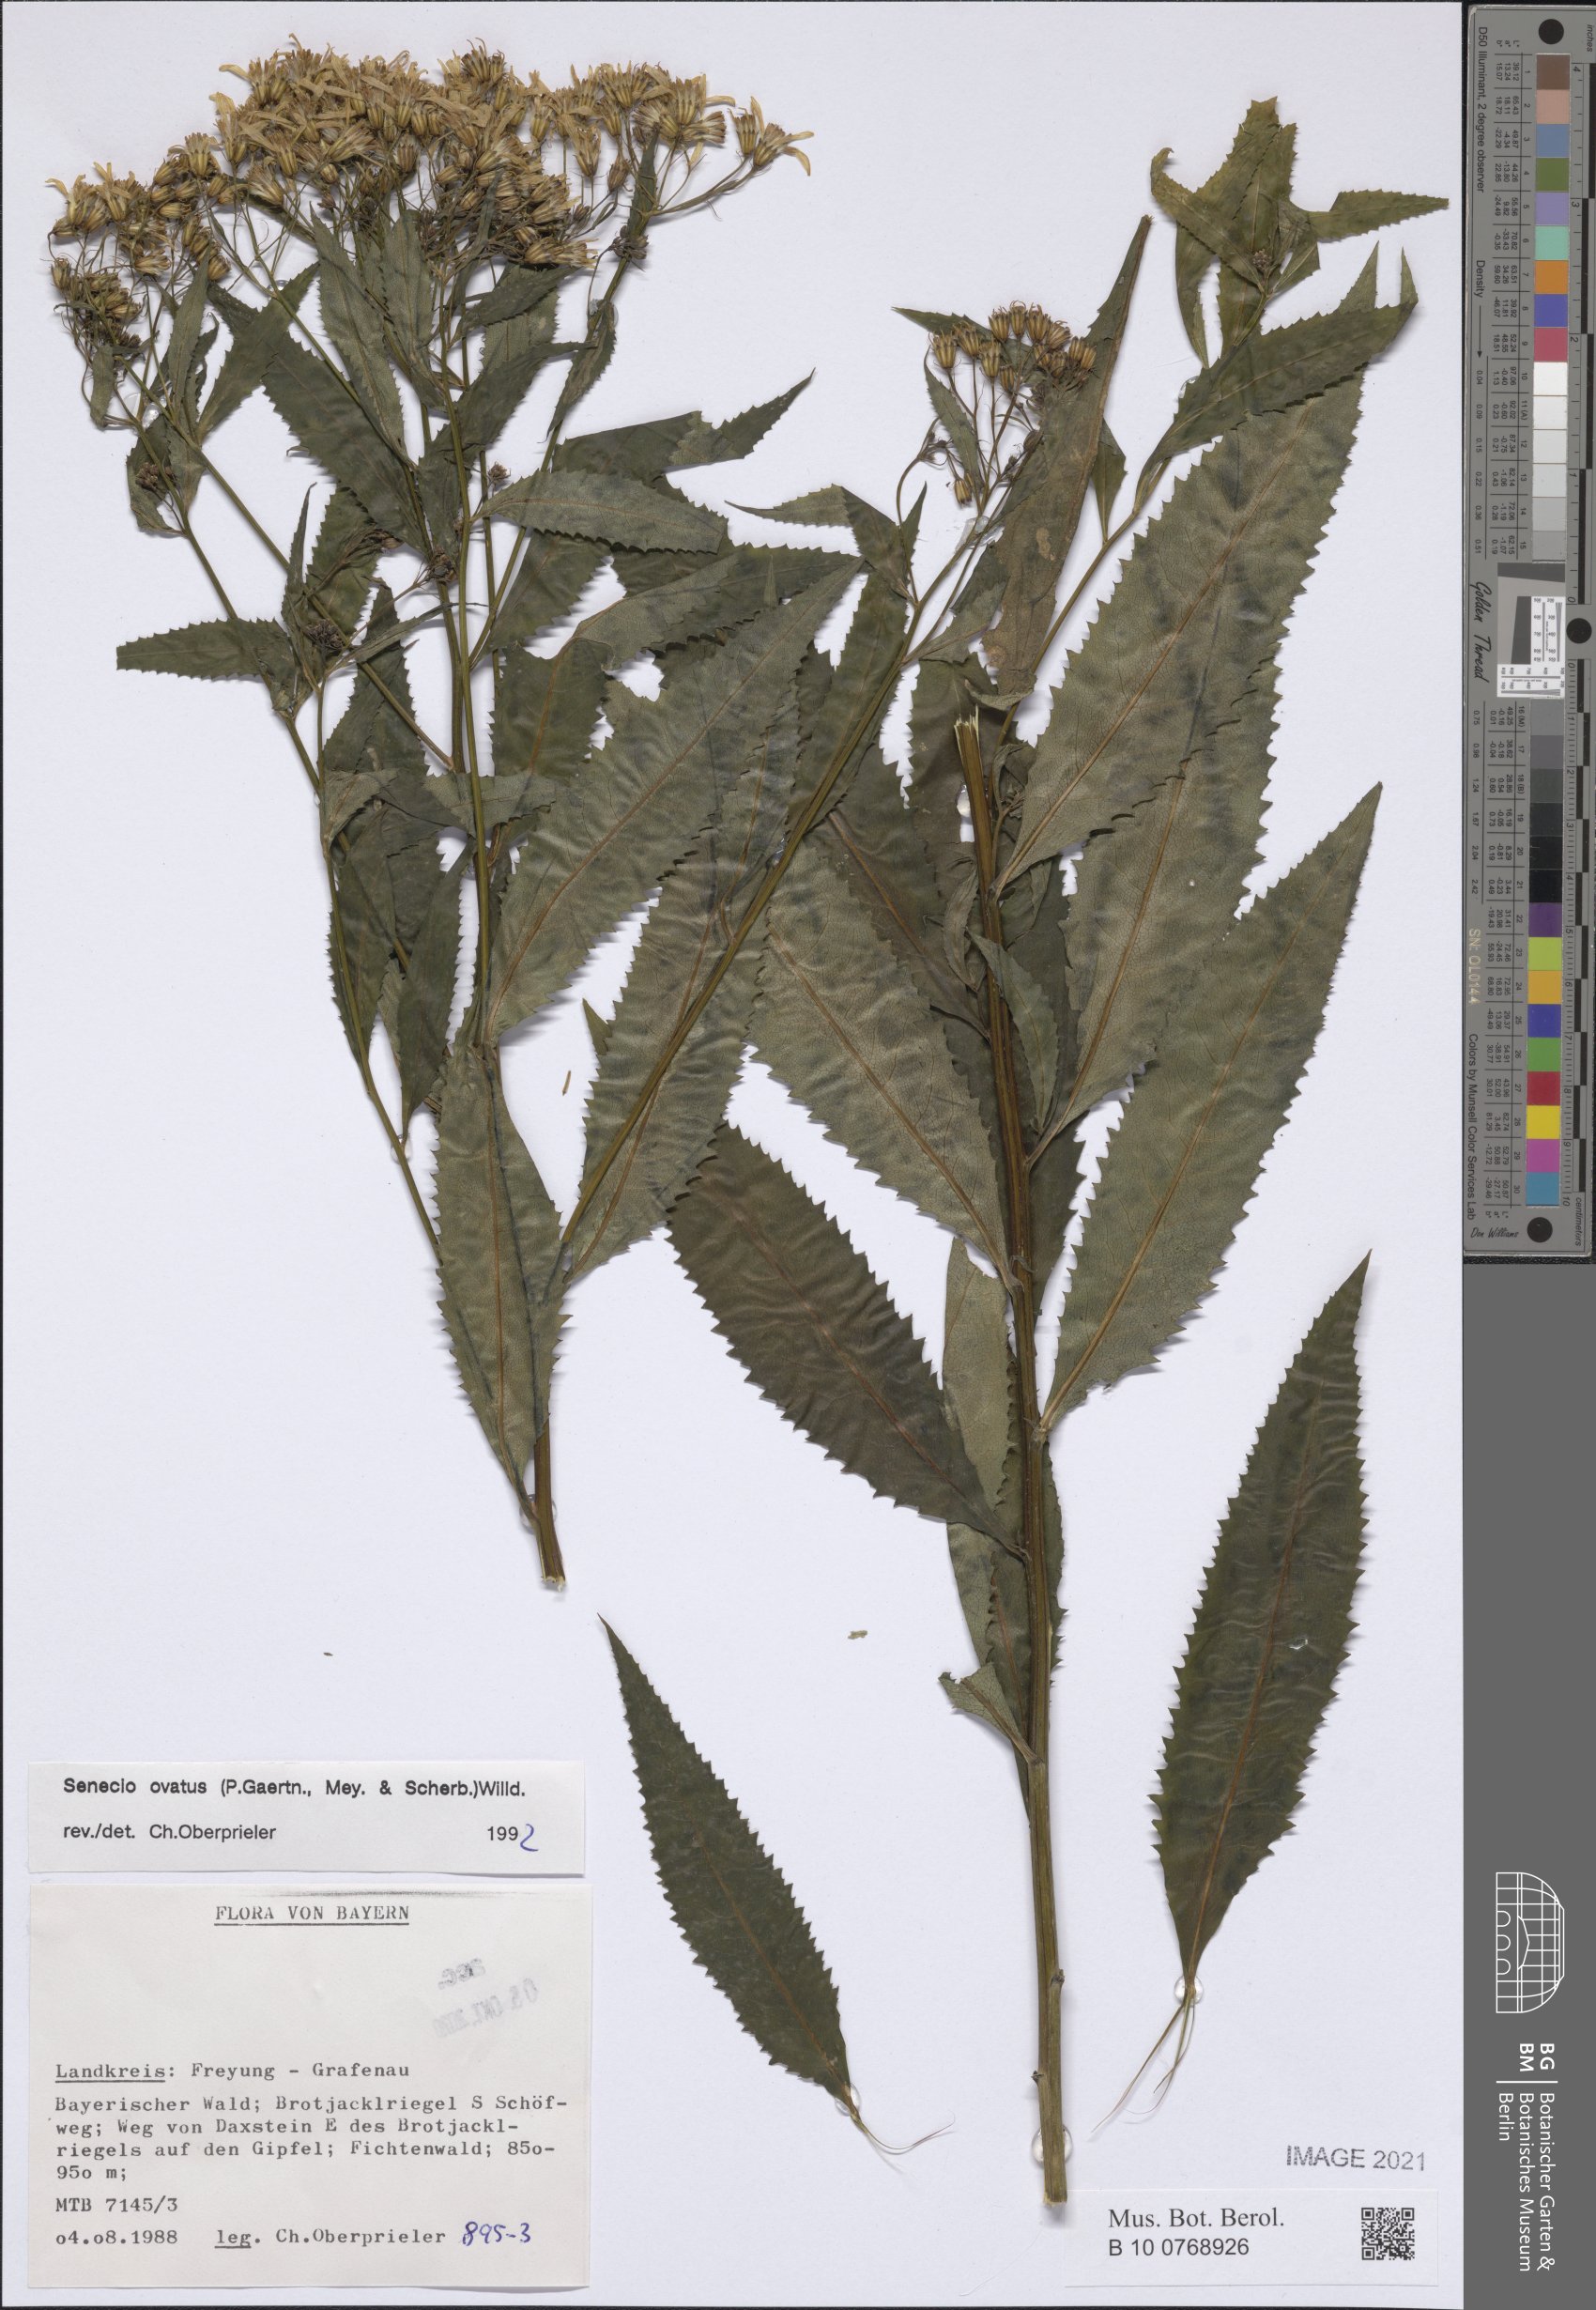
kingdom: Plantae
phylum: Tracheophyta
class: Magnoliopsida
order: Asterales
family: Asteraceae
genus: Senecio
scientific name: Senecio ovatus
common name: Wood ragwort
